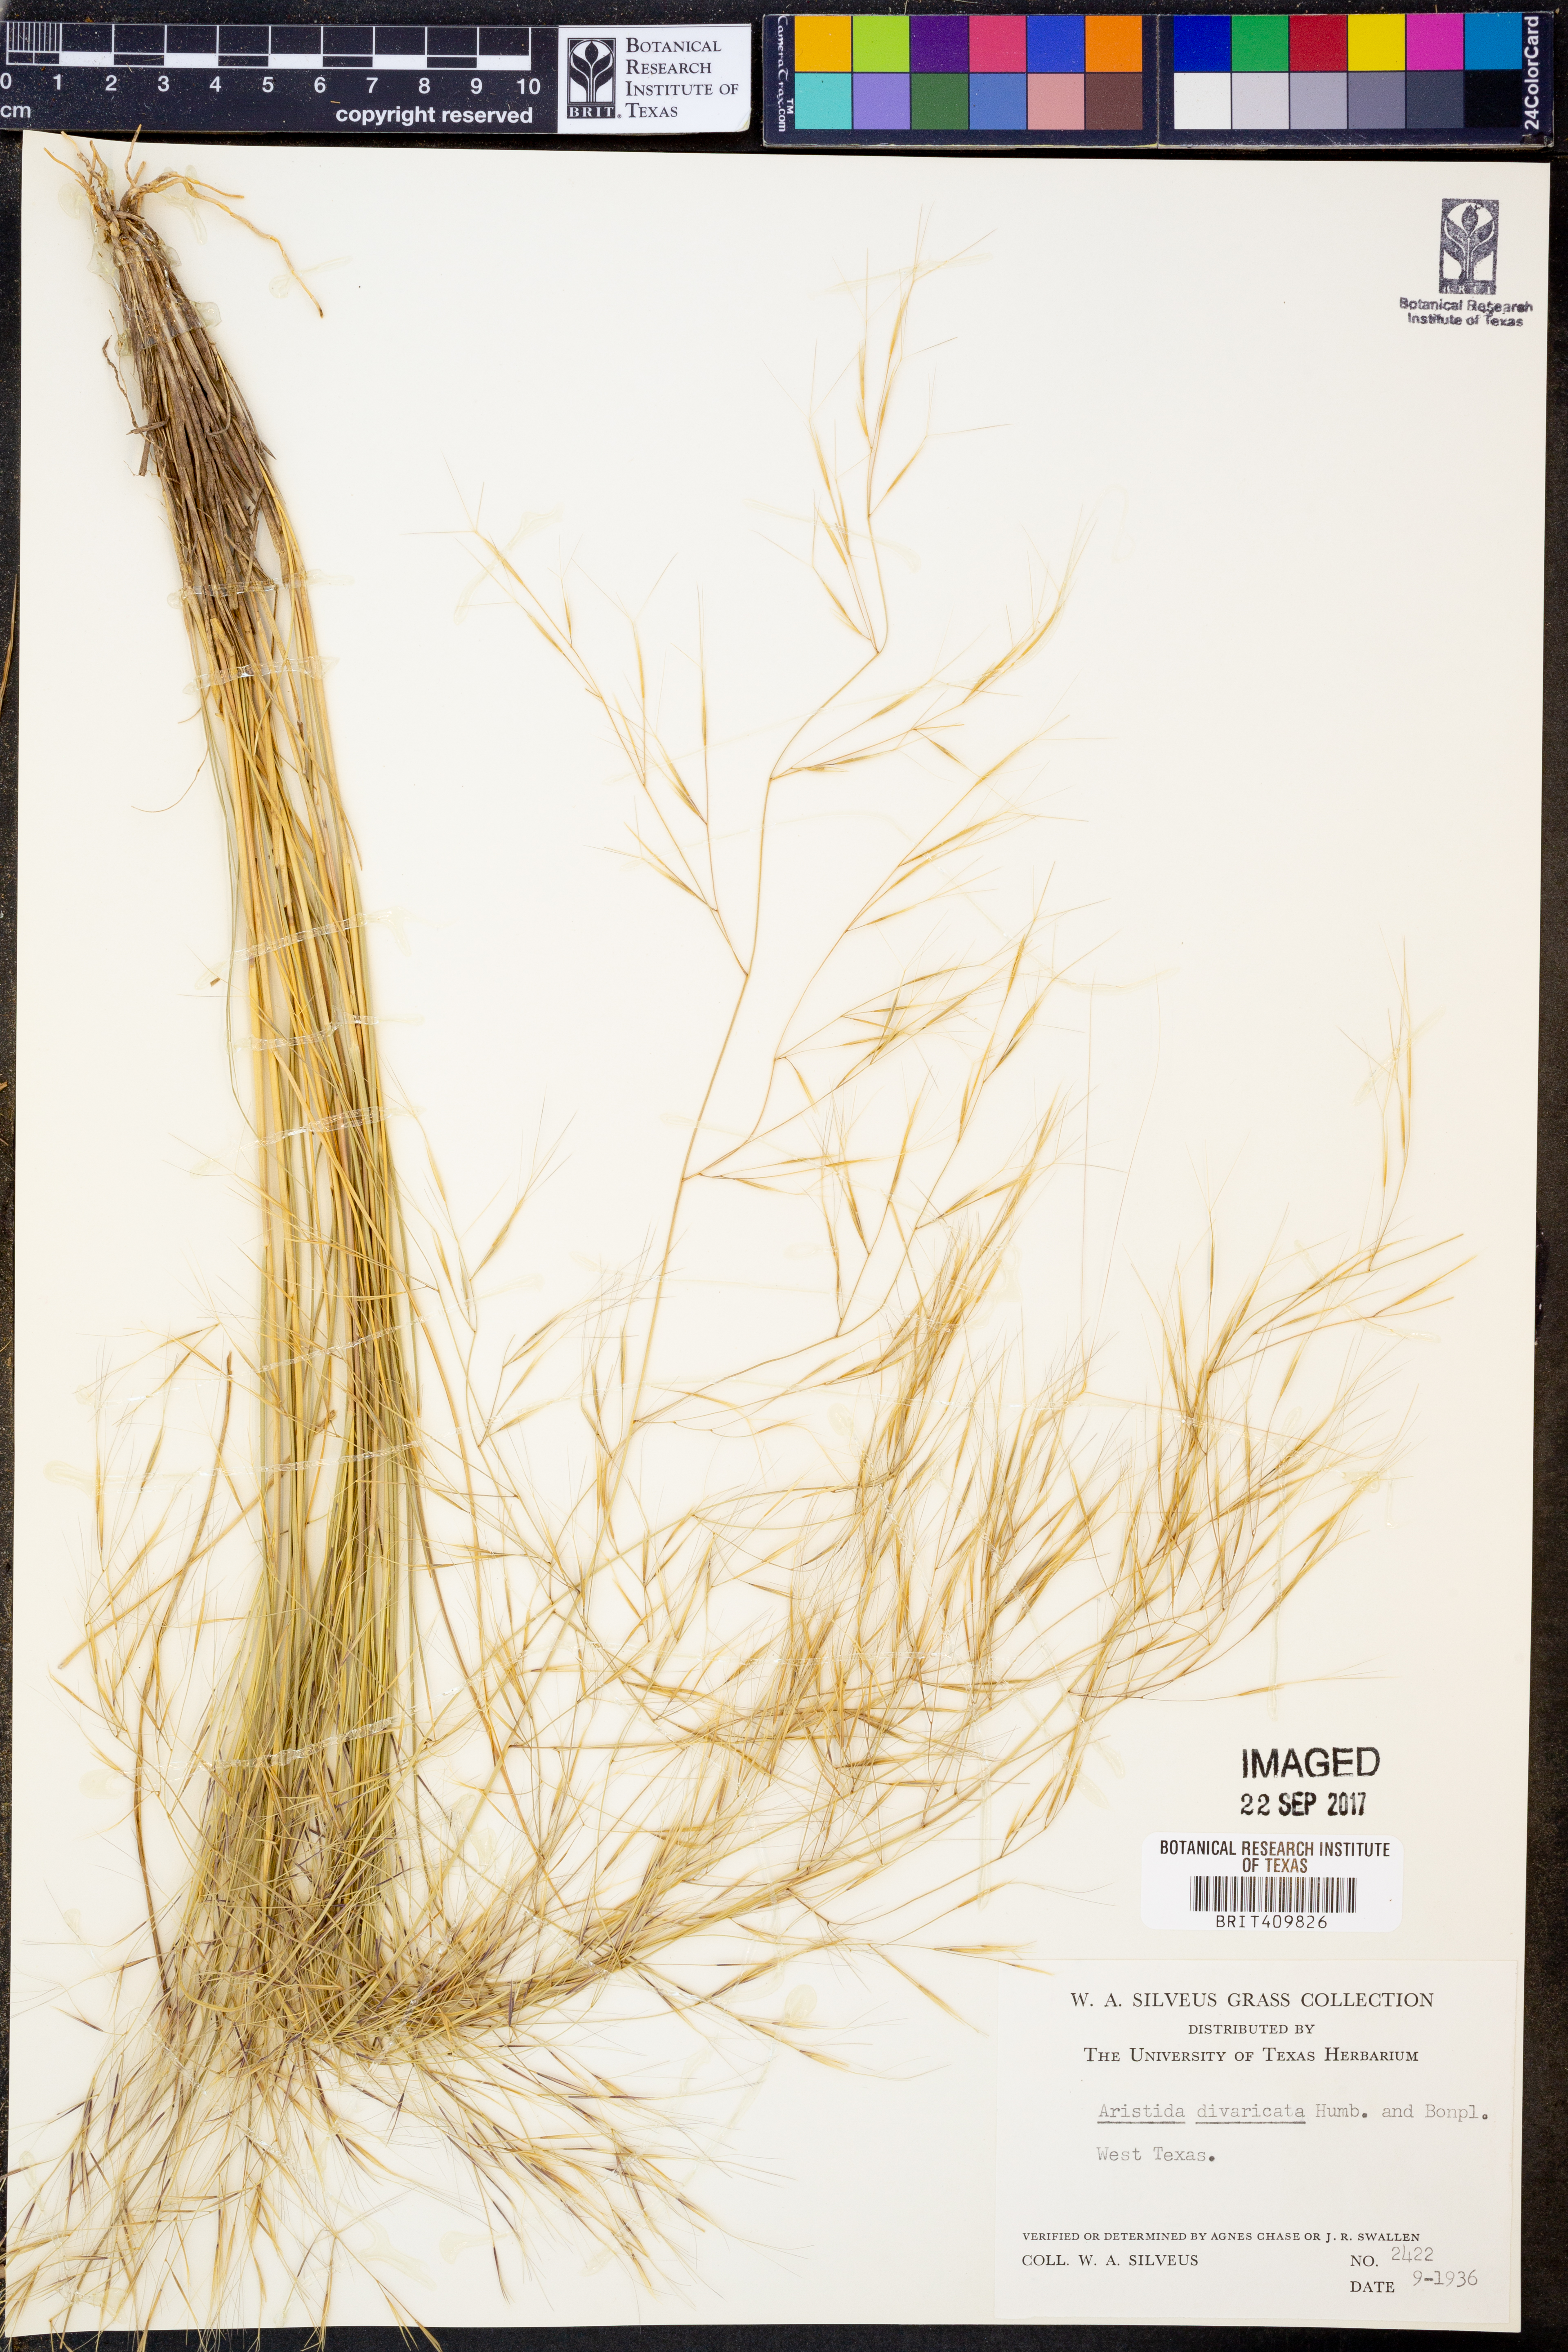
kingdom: Plantae
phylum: Tracheophyta
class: Liliopsida
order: Poales
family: Poaceae
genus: Aristida
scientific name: Aristida divaricata
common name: Poverty grass
